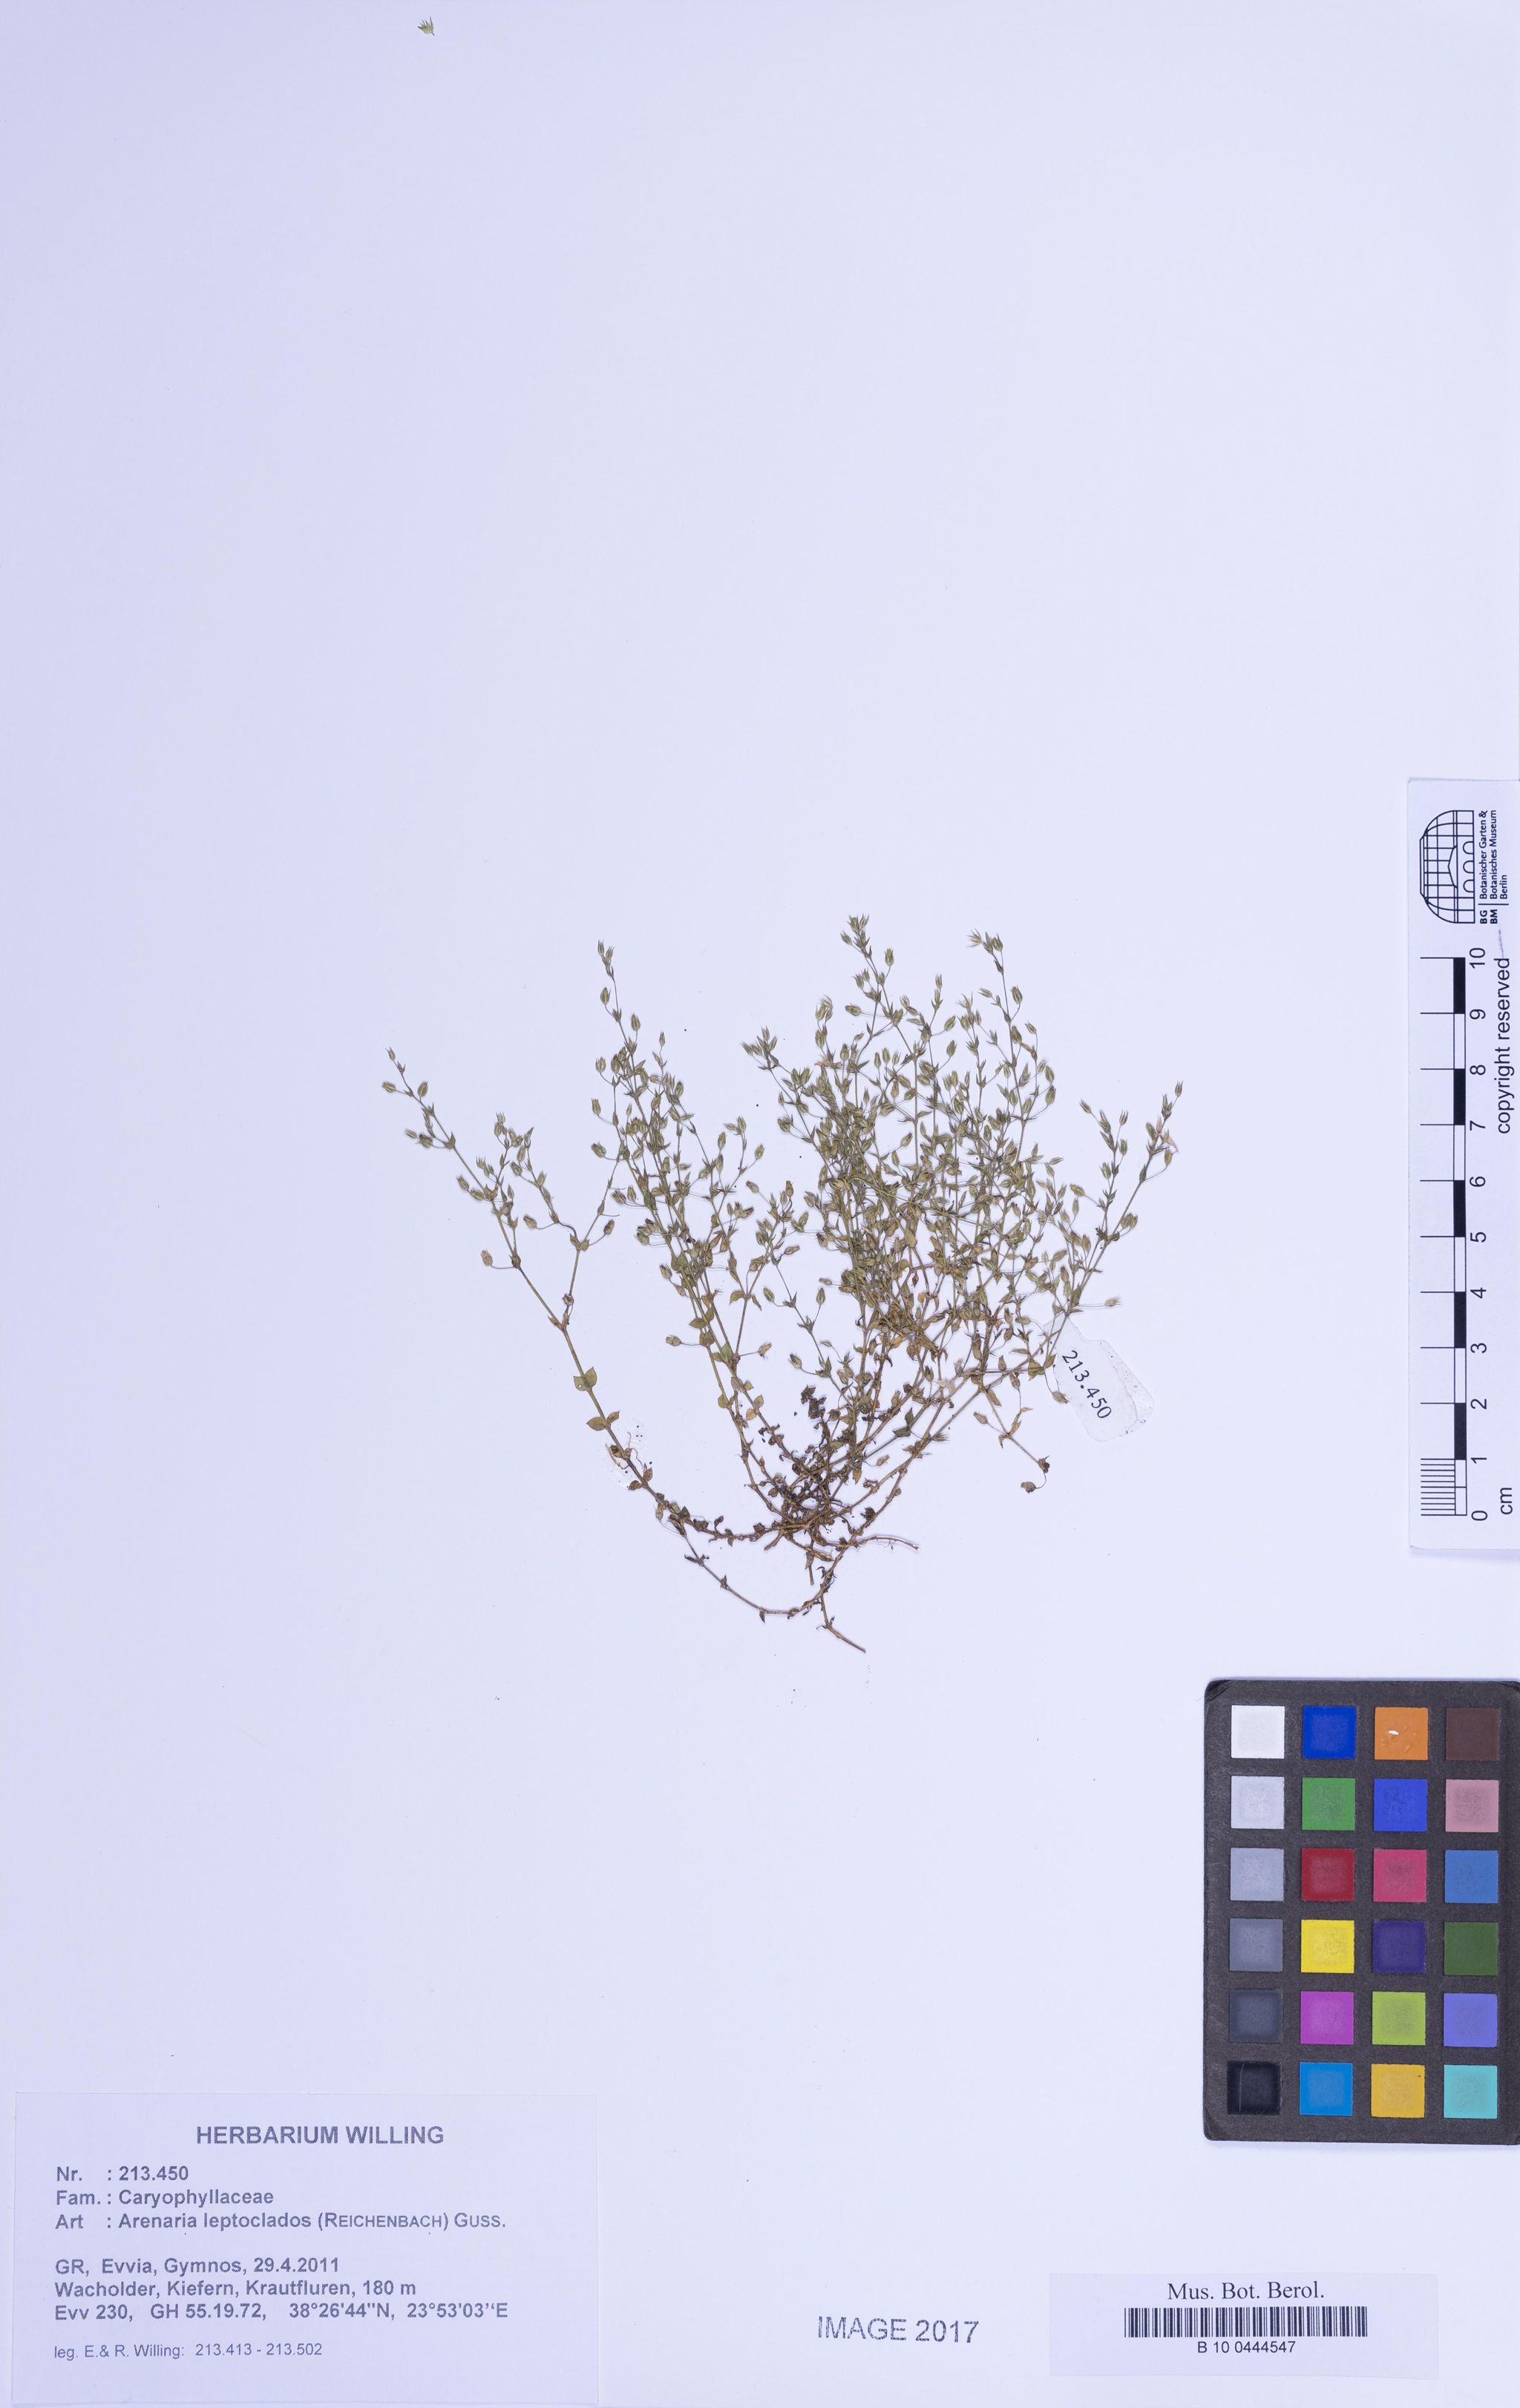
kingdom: Plantae
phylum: Tracheophyta
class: Magnoliopsida
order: Caryophyllales
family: Caryophyllaceae
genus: Arenaria
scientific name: Arenaria leptoclados
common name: Thyme-leaved sandwort
